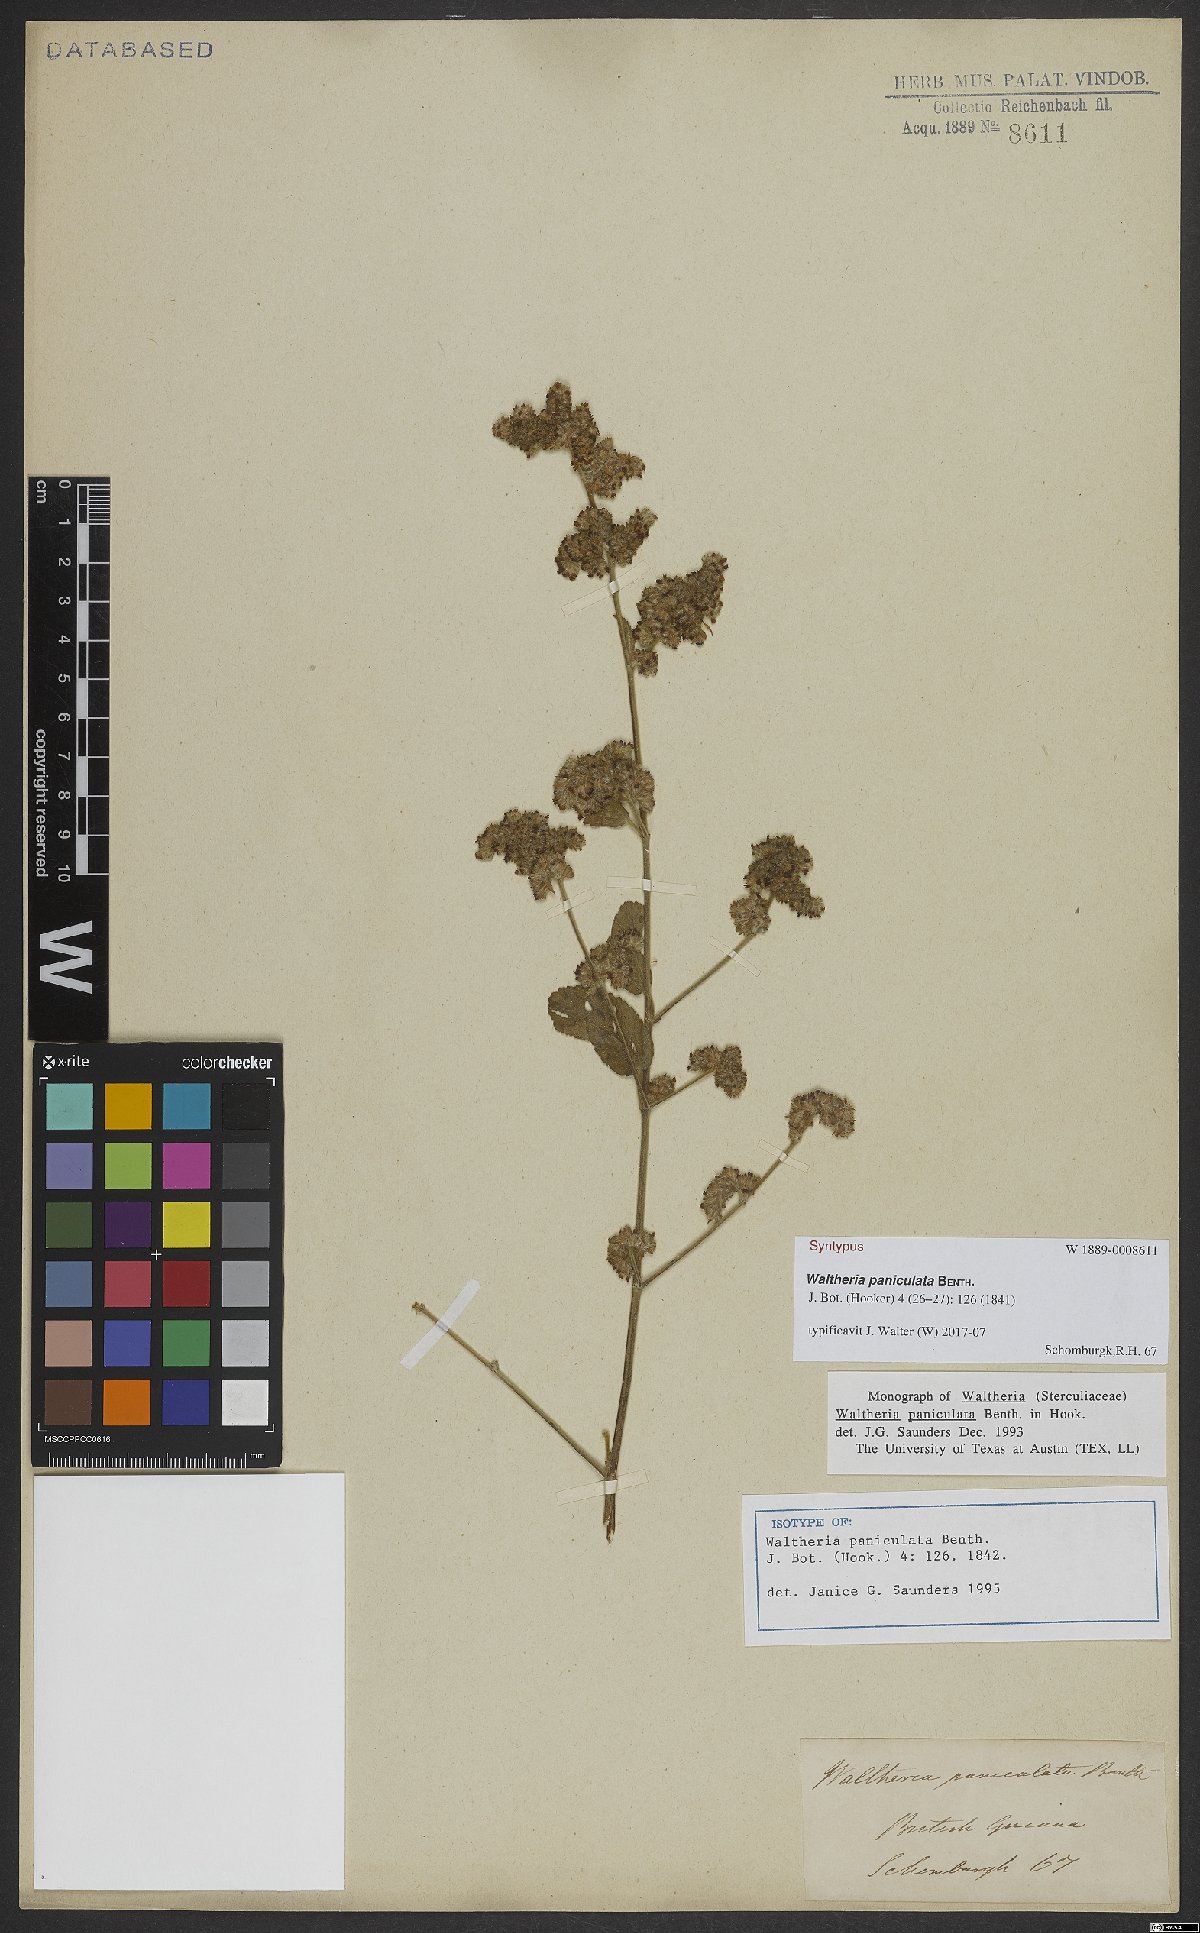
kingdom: Plantae
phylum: Tracheophyta
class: Magnoliopsida
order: Malvales
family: Malvaceae
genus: Waltheria
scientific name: Waltheria indica
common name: Leather-coat
